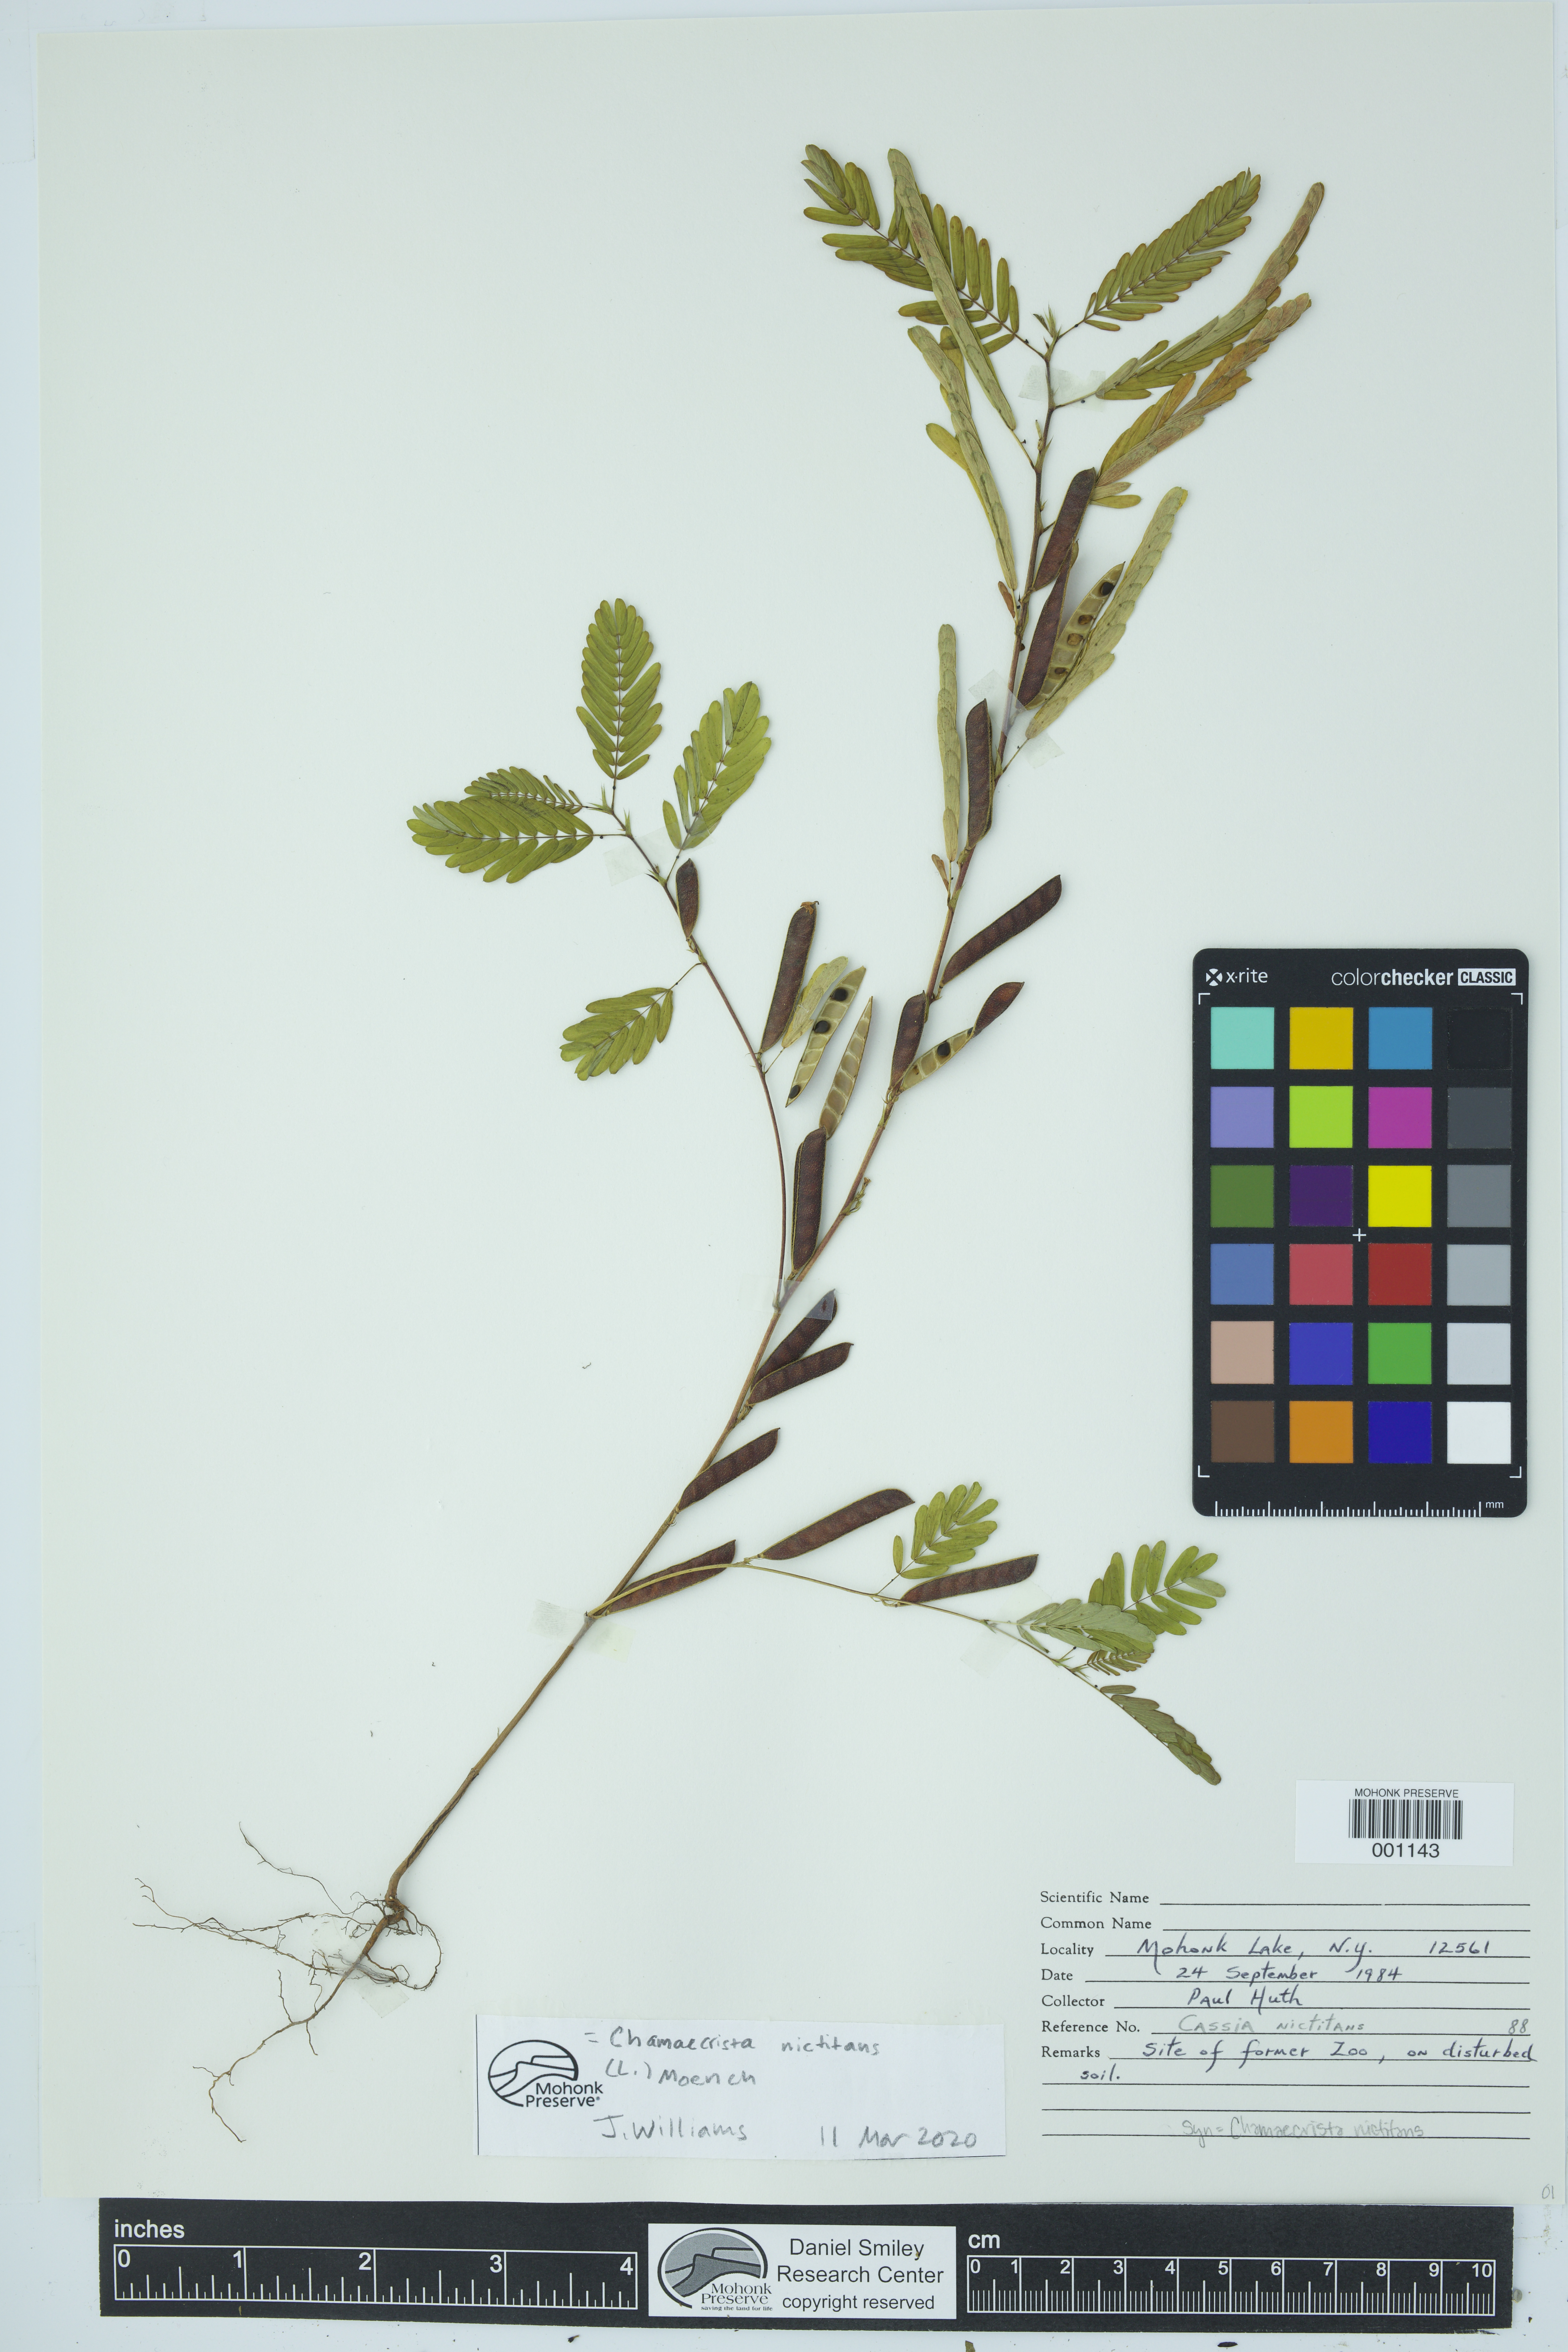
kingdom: Plantae
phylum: Tracheophyta
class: Magnoliopsida
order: Fabales
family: Fabaceae
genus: Chamaecrista
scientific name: Chamaecrista nictitans
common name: Sensitive cassia
